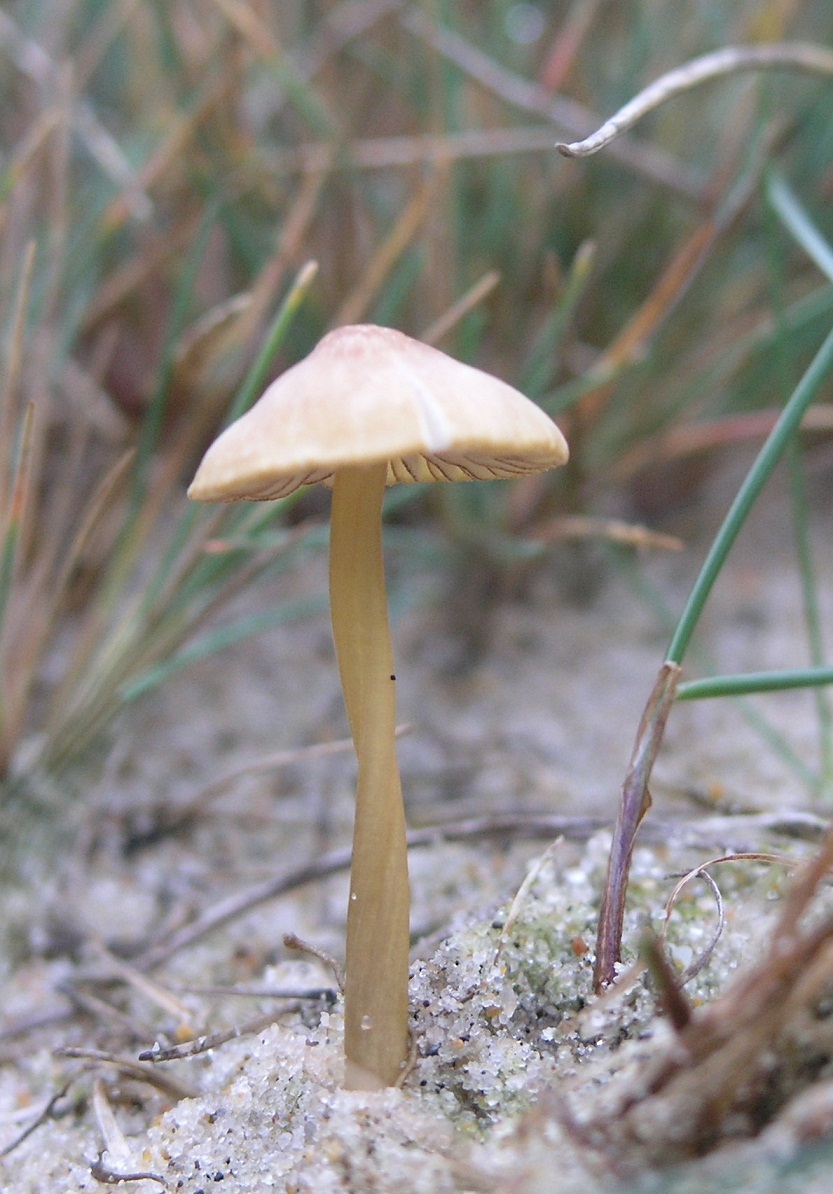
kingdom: Fungi
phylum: Basidiomycota
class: Agaricomycetes
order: Agaricales
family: Mycenaceae
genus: Mycena
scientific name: Mycena olivaceomarginata
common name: brunægget huesvamp
